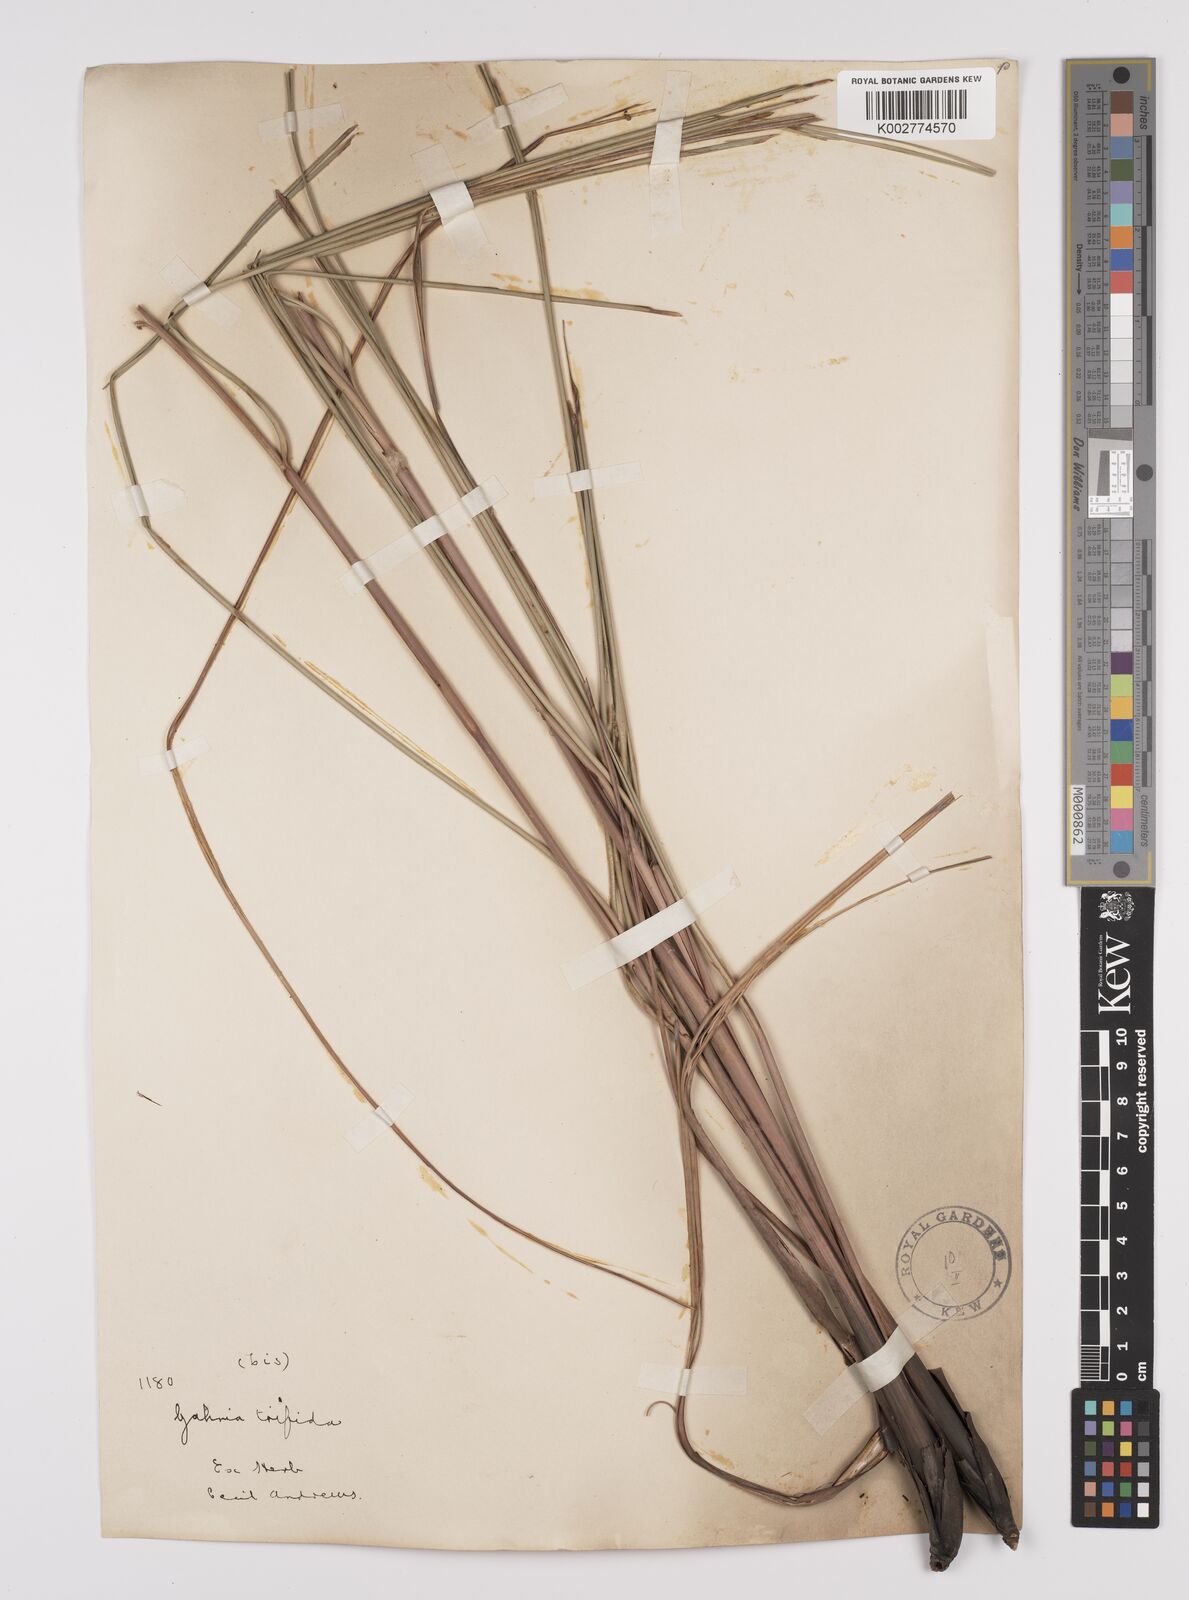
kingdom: Plantae
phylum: Tracheophyta
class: Liliopsida
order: Poales
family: Cyperaceae
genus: Gahnia
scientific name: Gahnia trifida
